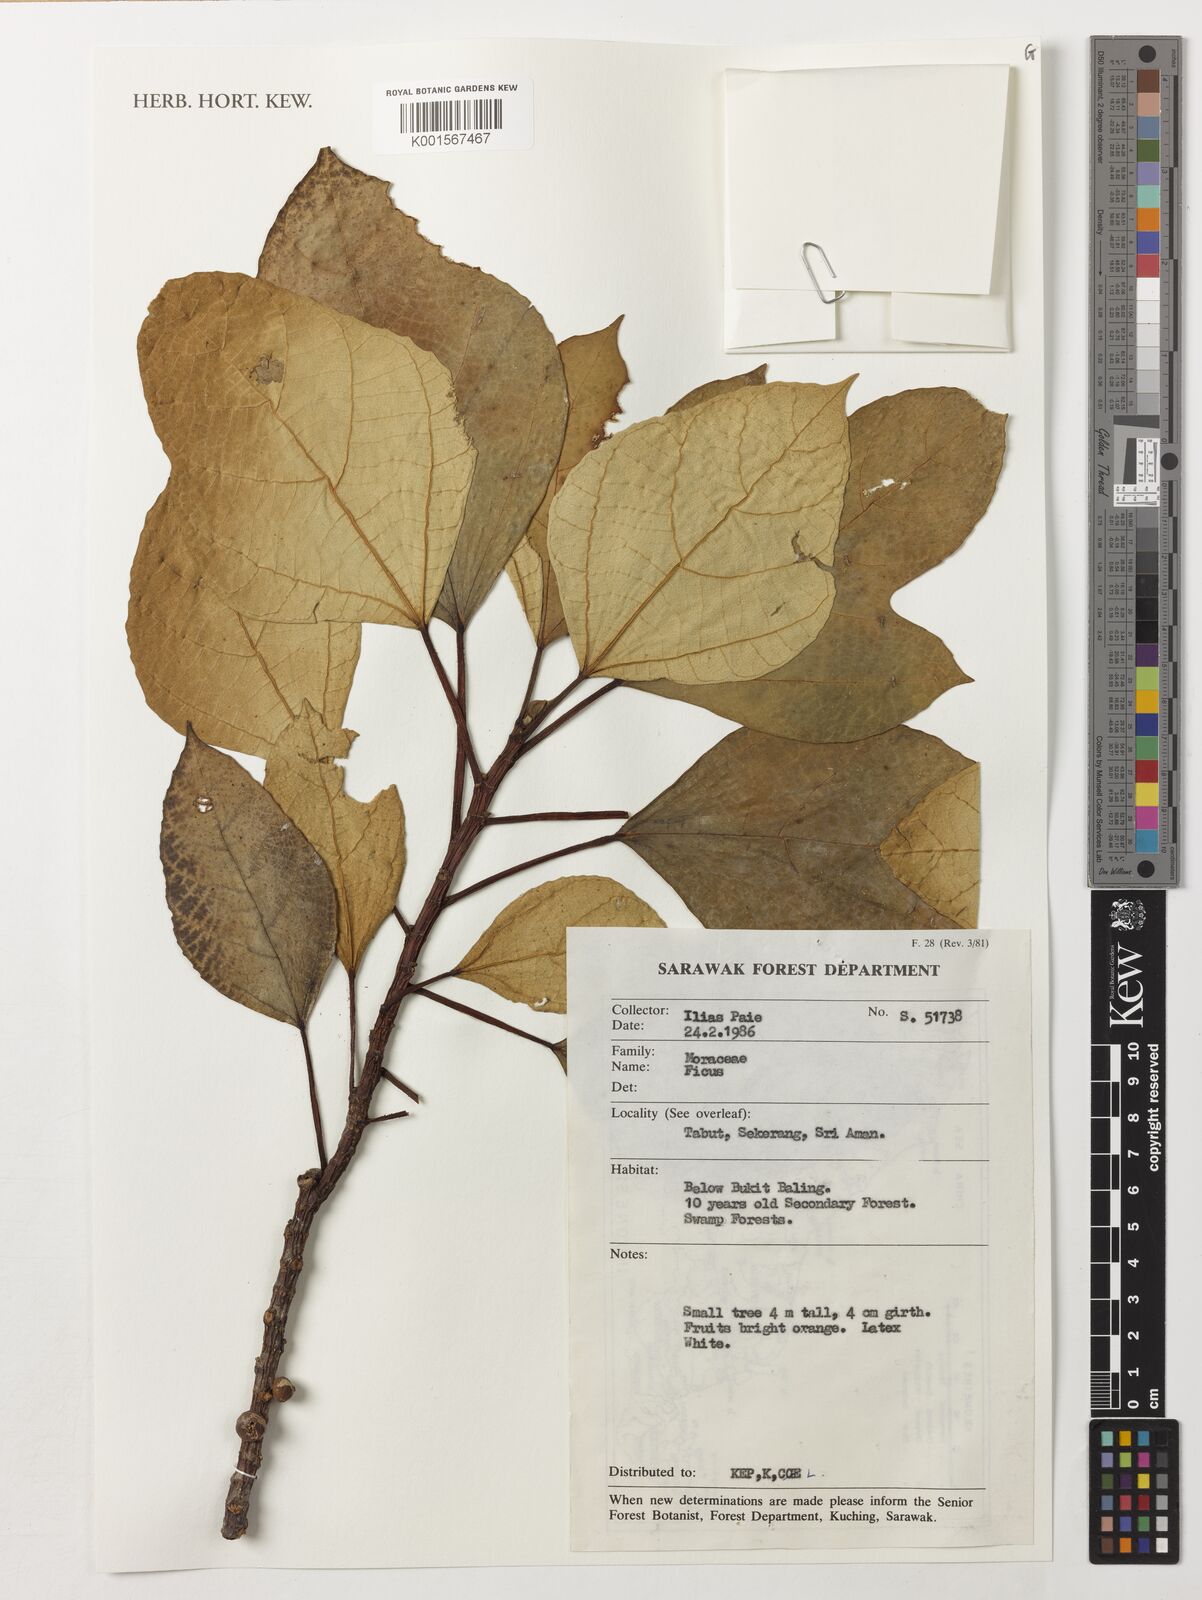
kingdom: Plantae
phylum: Tracheophyta
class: Magnoliopsida
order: Rosales
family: Moraceae
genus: Ficus
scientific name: Ficus
